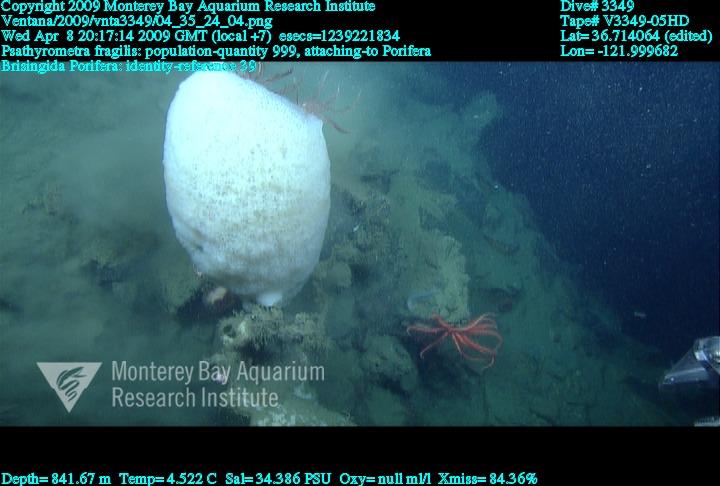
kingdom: Animalia
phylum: Porifera
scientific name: Porifera
